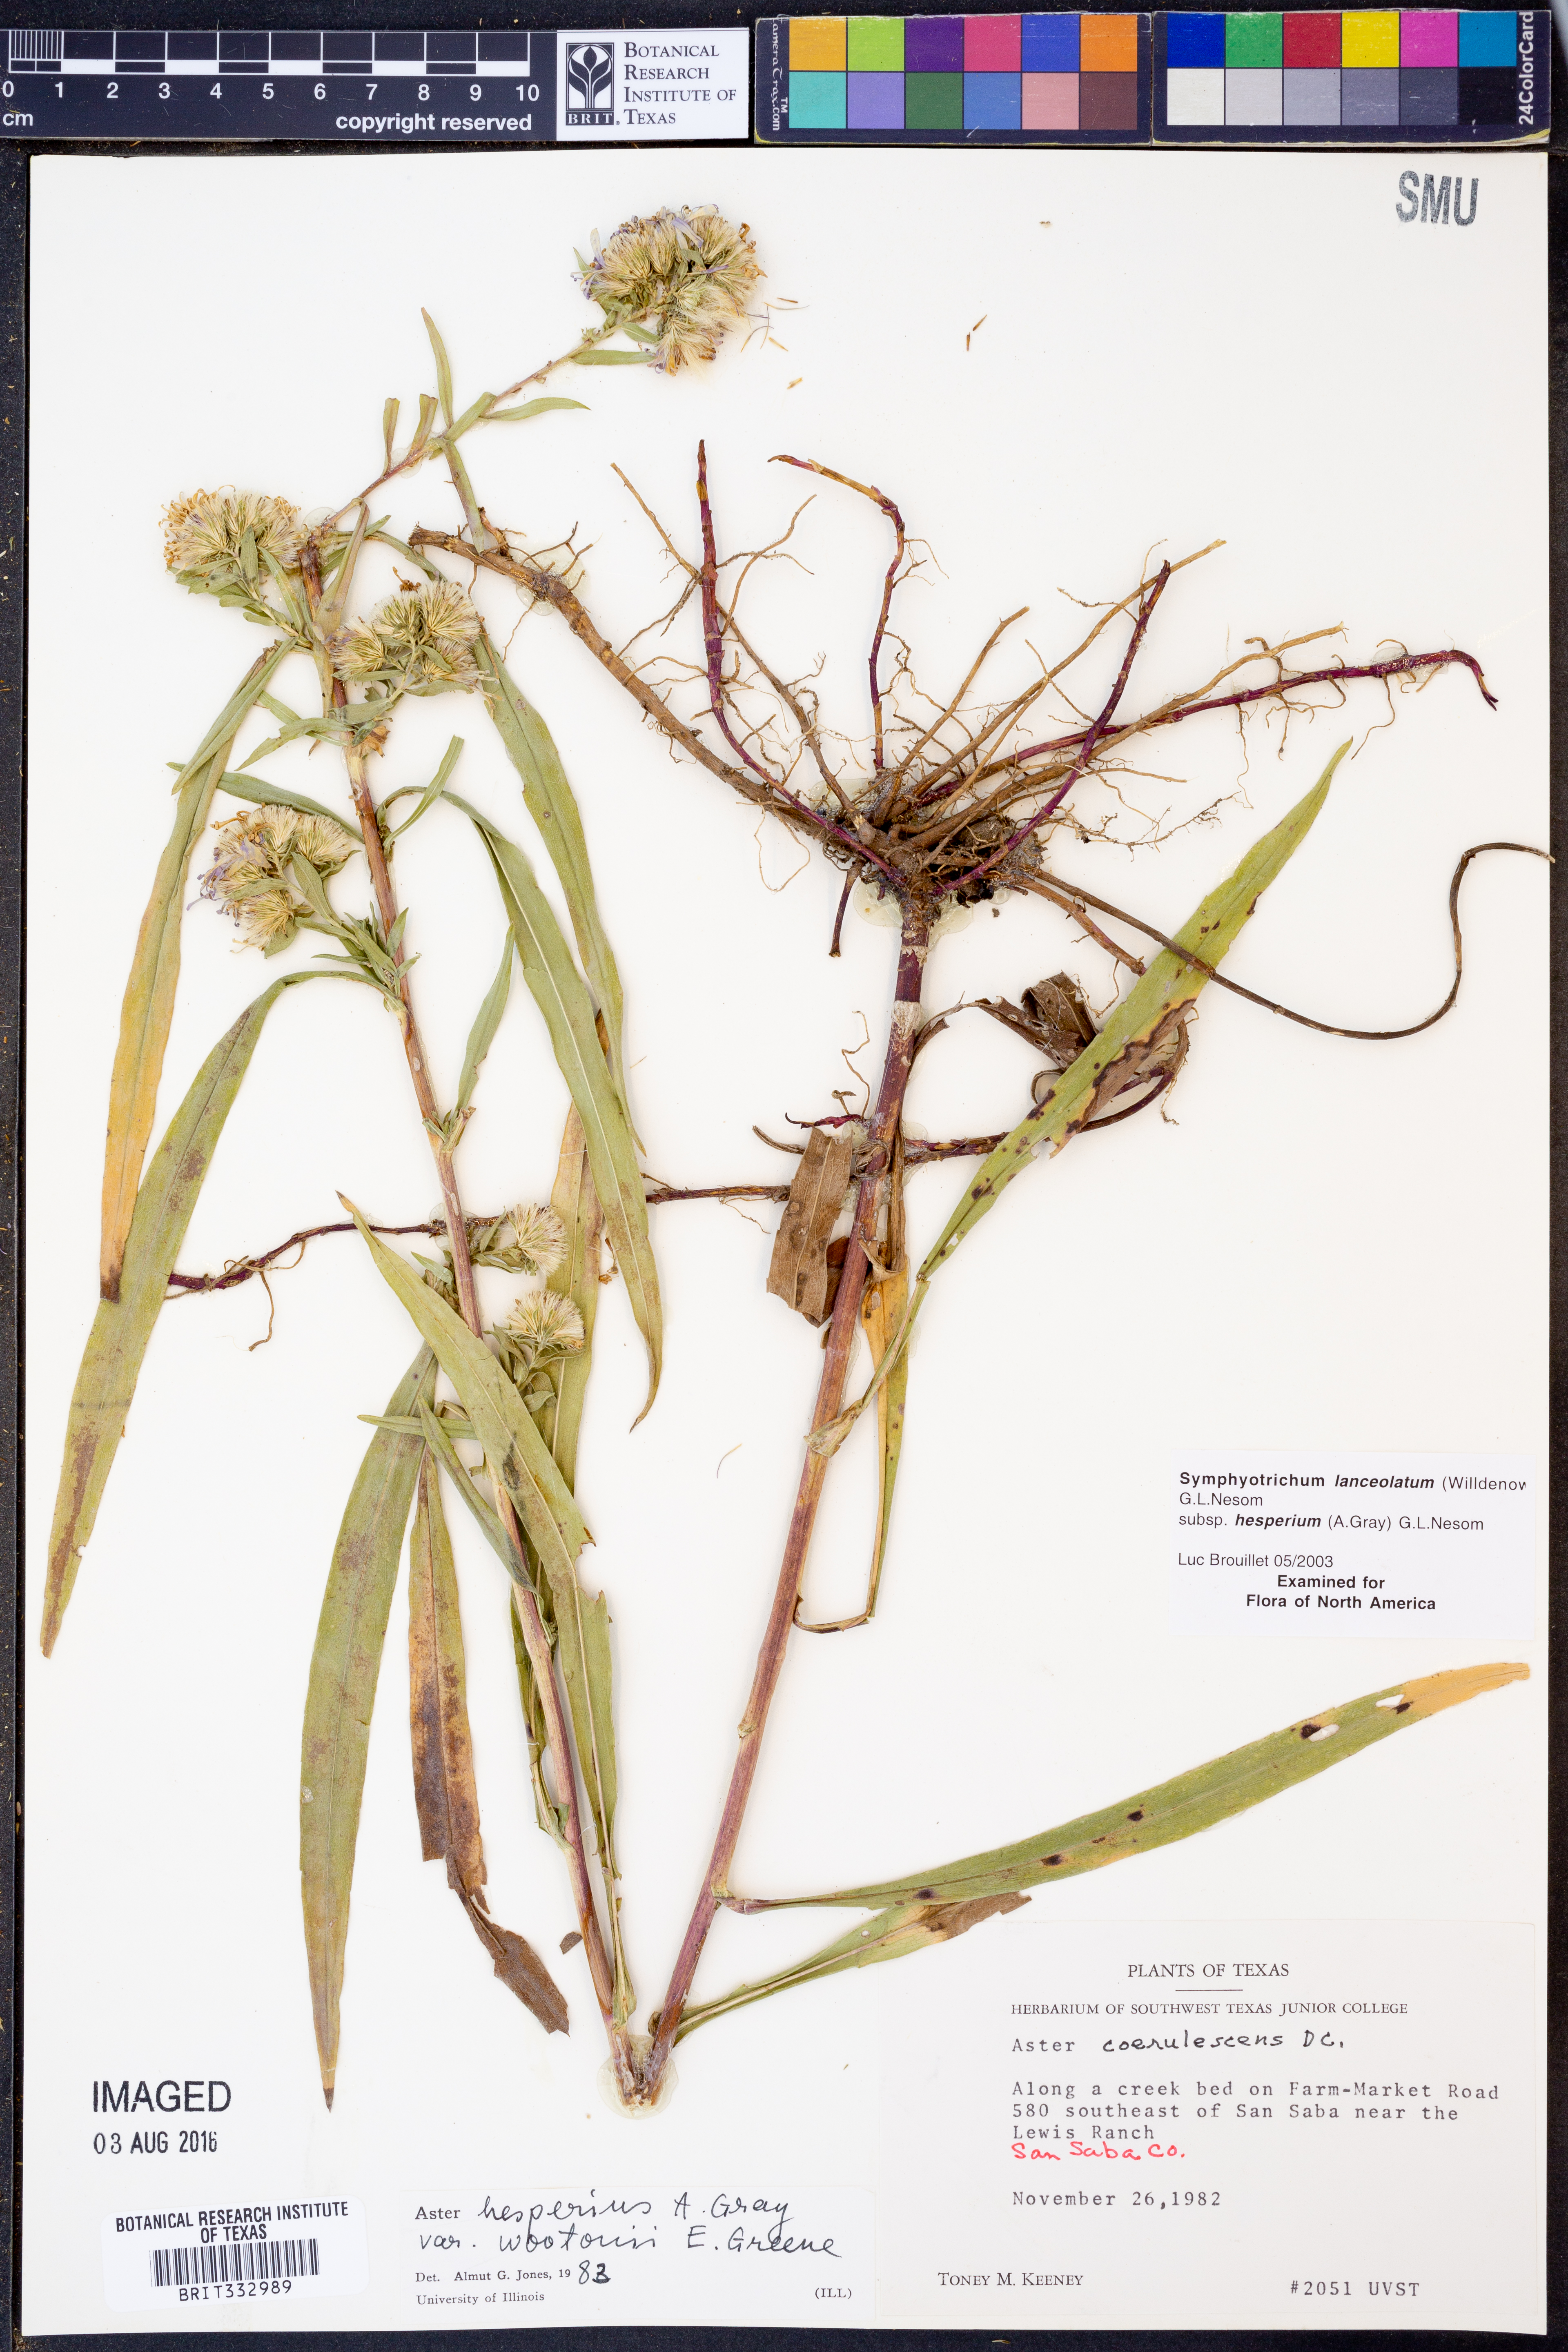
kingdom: Plantae
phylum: Tracheophyta
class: Magnoliopsida
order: Asterales
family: Asteraceae
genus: Symphyotrichum
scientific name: Symphyotrichum lanceolatum
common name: Panicled aster
